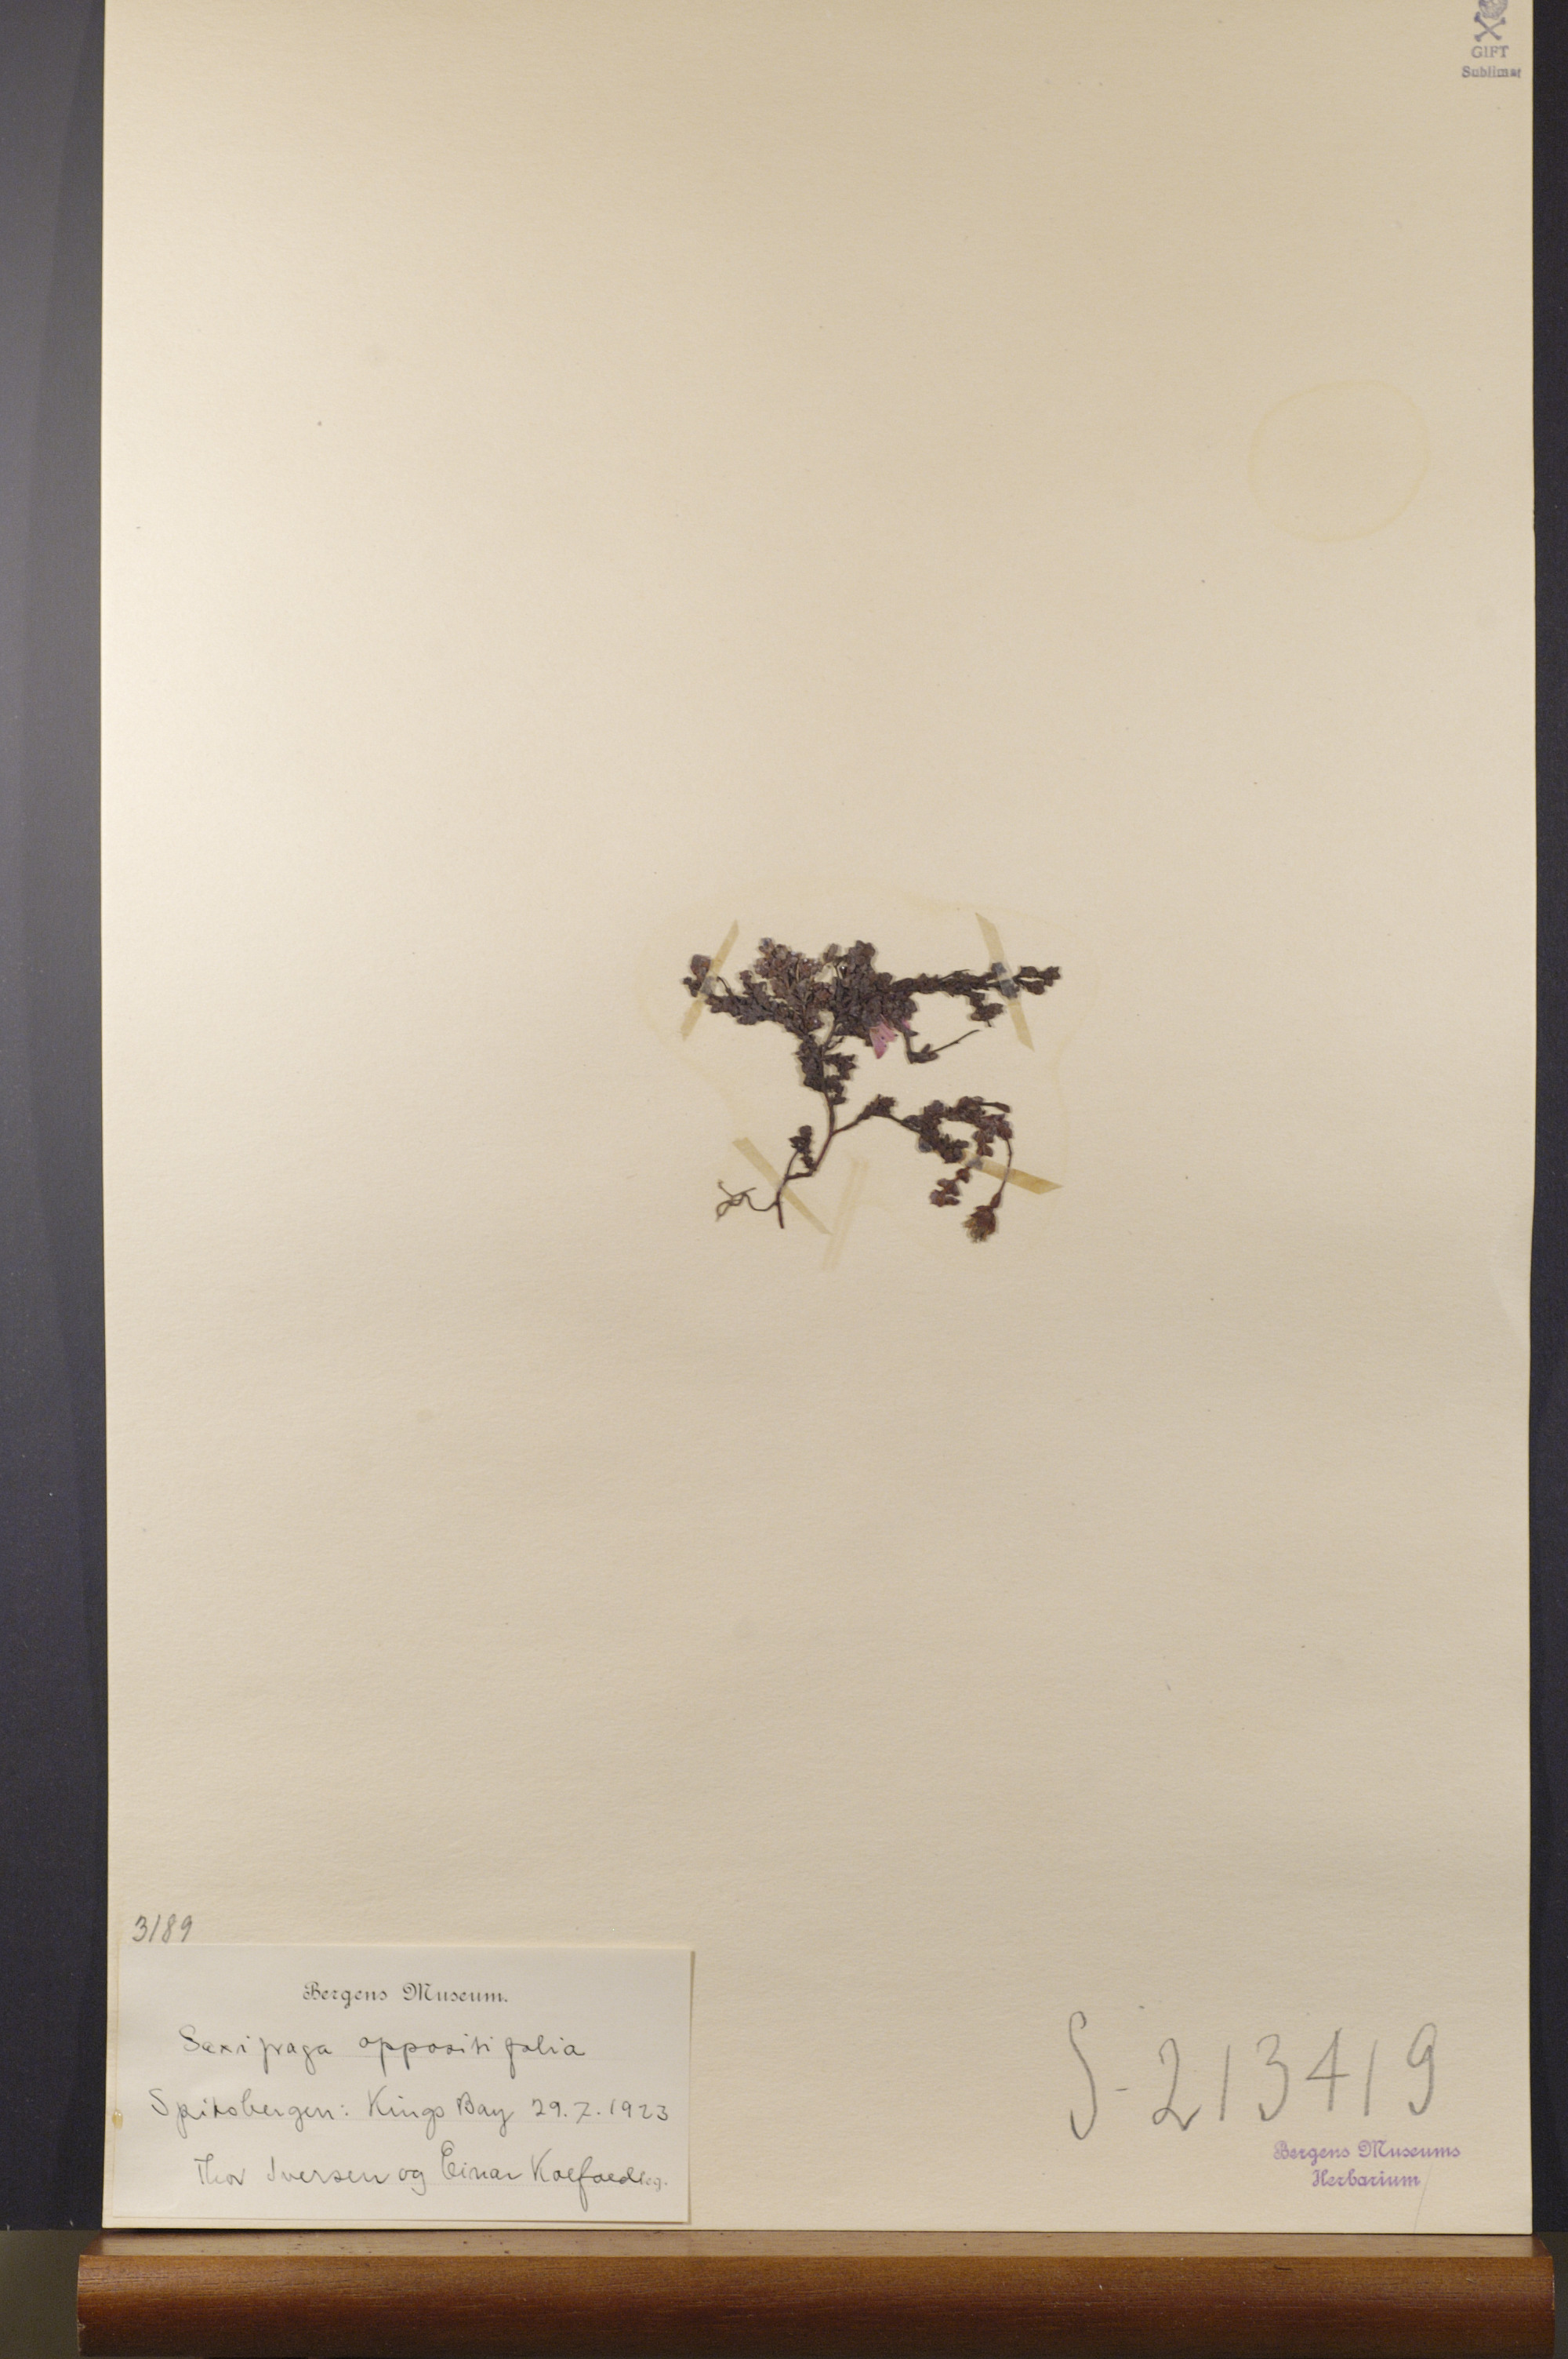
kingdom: Plantae
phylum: Tracheophyta
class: Magnoliopsida
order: Saxifragales
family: Saxifragaceae
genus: Saxifraga
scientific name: Saxifraga oppositifolia
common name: Purple saxifrage
